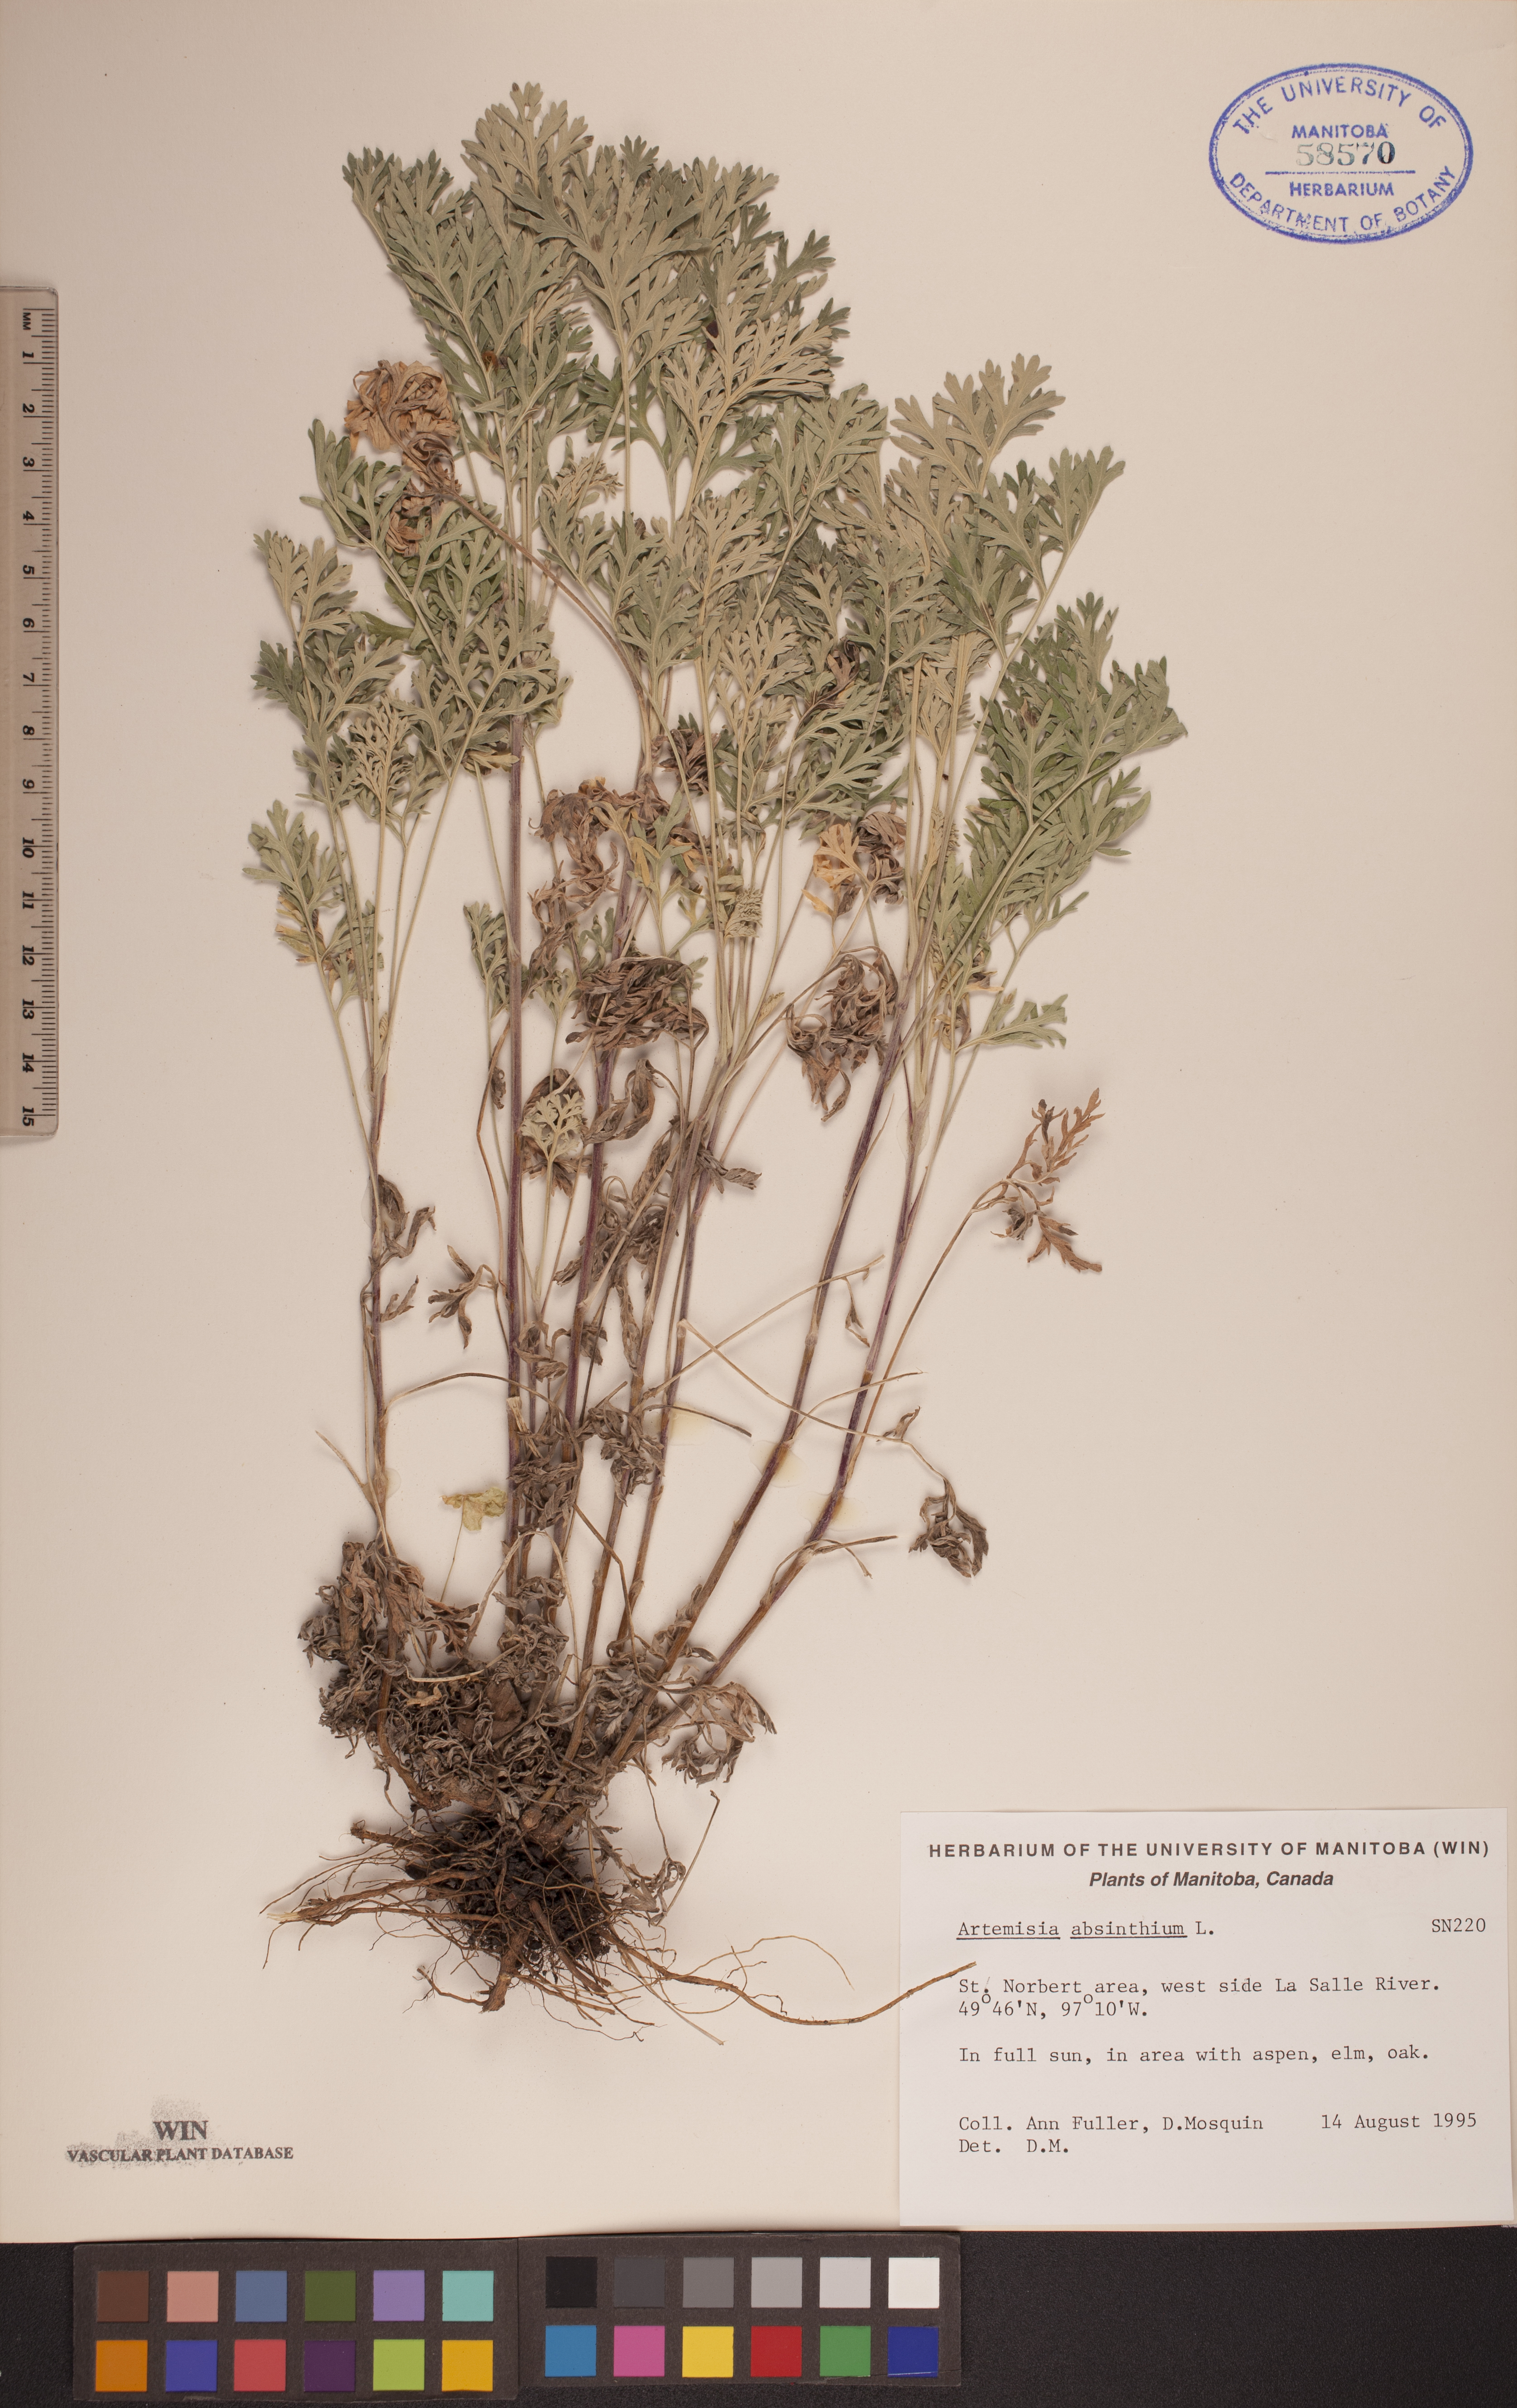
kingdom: Plantae
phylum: Tracheophyta
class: Magnoliopsida
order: Asterales
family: Asteraceae
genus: Artemisia
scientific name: Artemisia absinthium
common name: Wormwood
